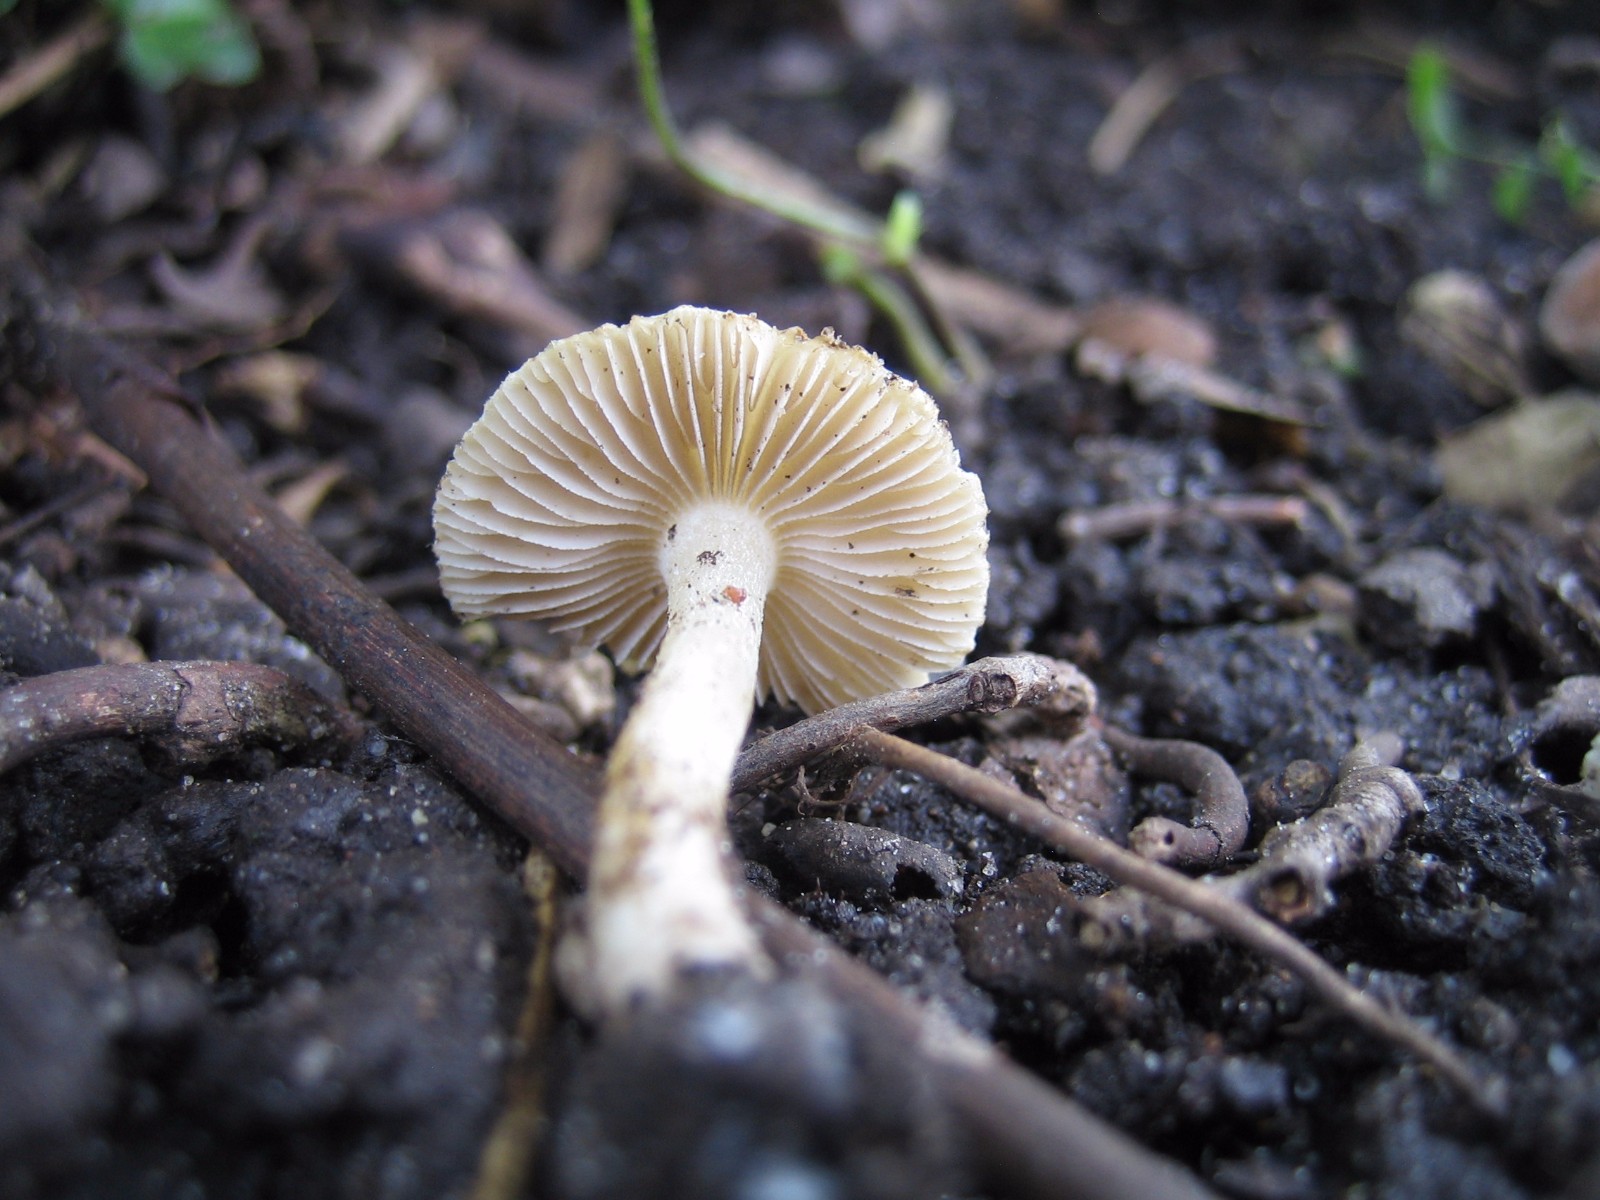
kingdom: Fungi
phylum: Basidiomycota
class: Agaricomycetes
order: Agaricales
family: Inocybaceae
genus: Inocybe
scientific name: Inocybe
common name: trævlhat
